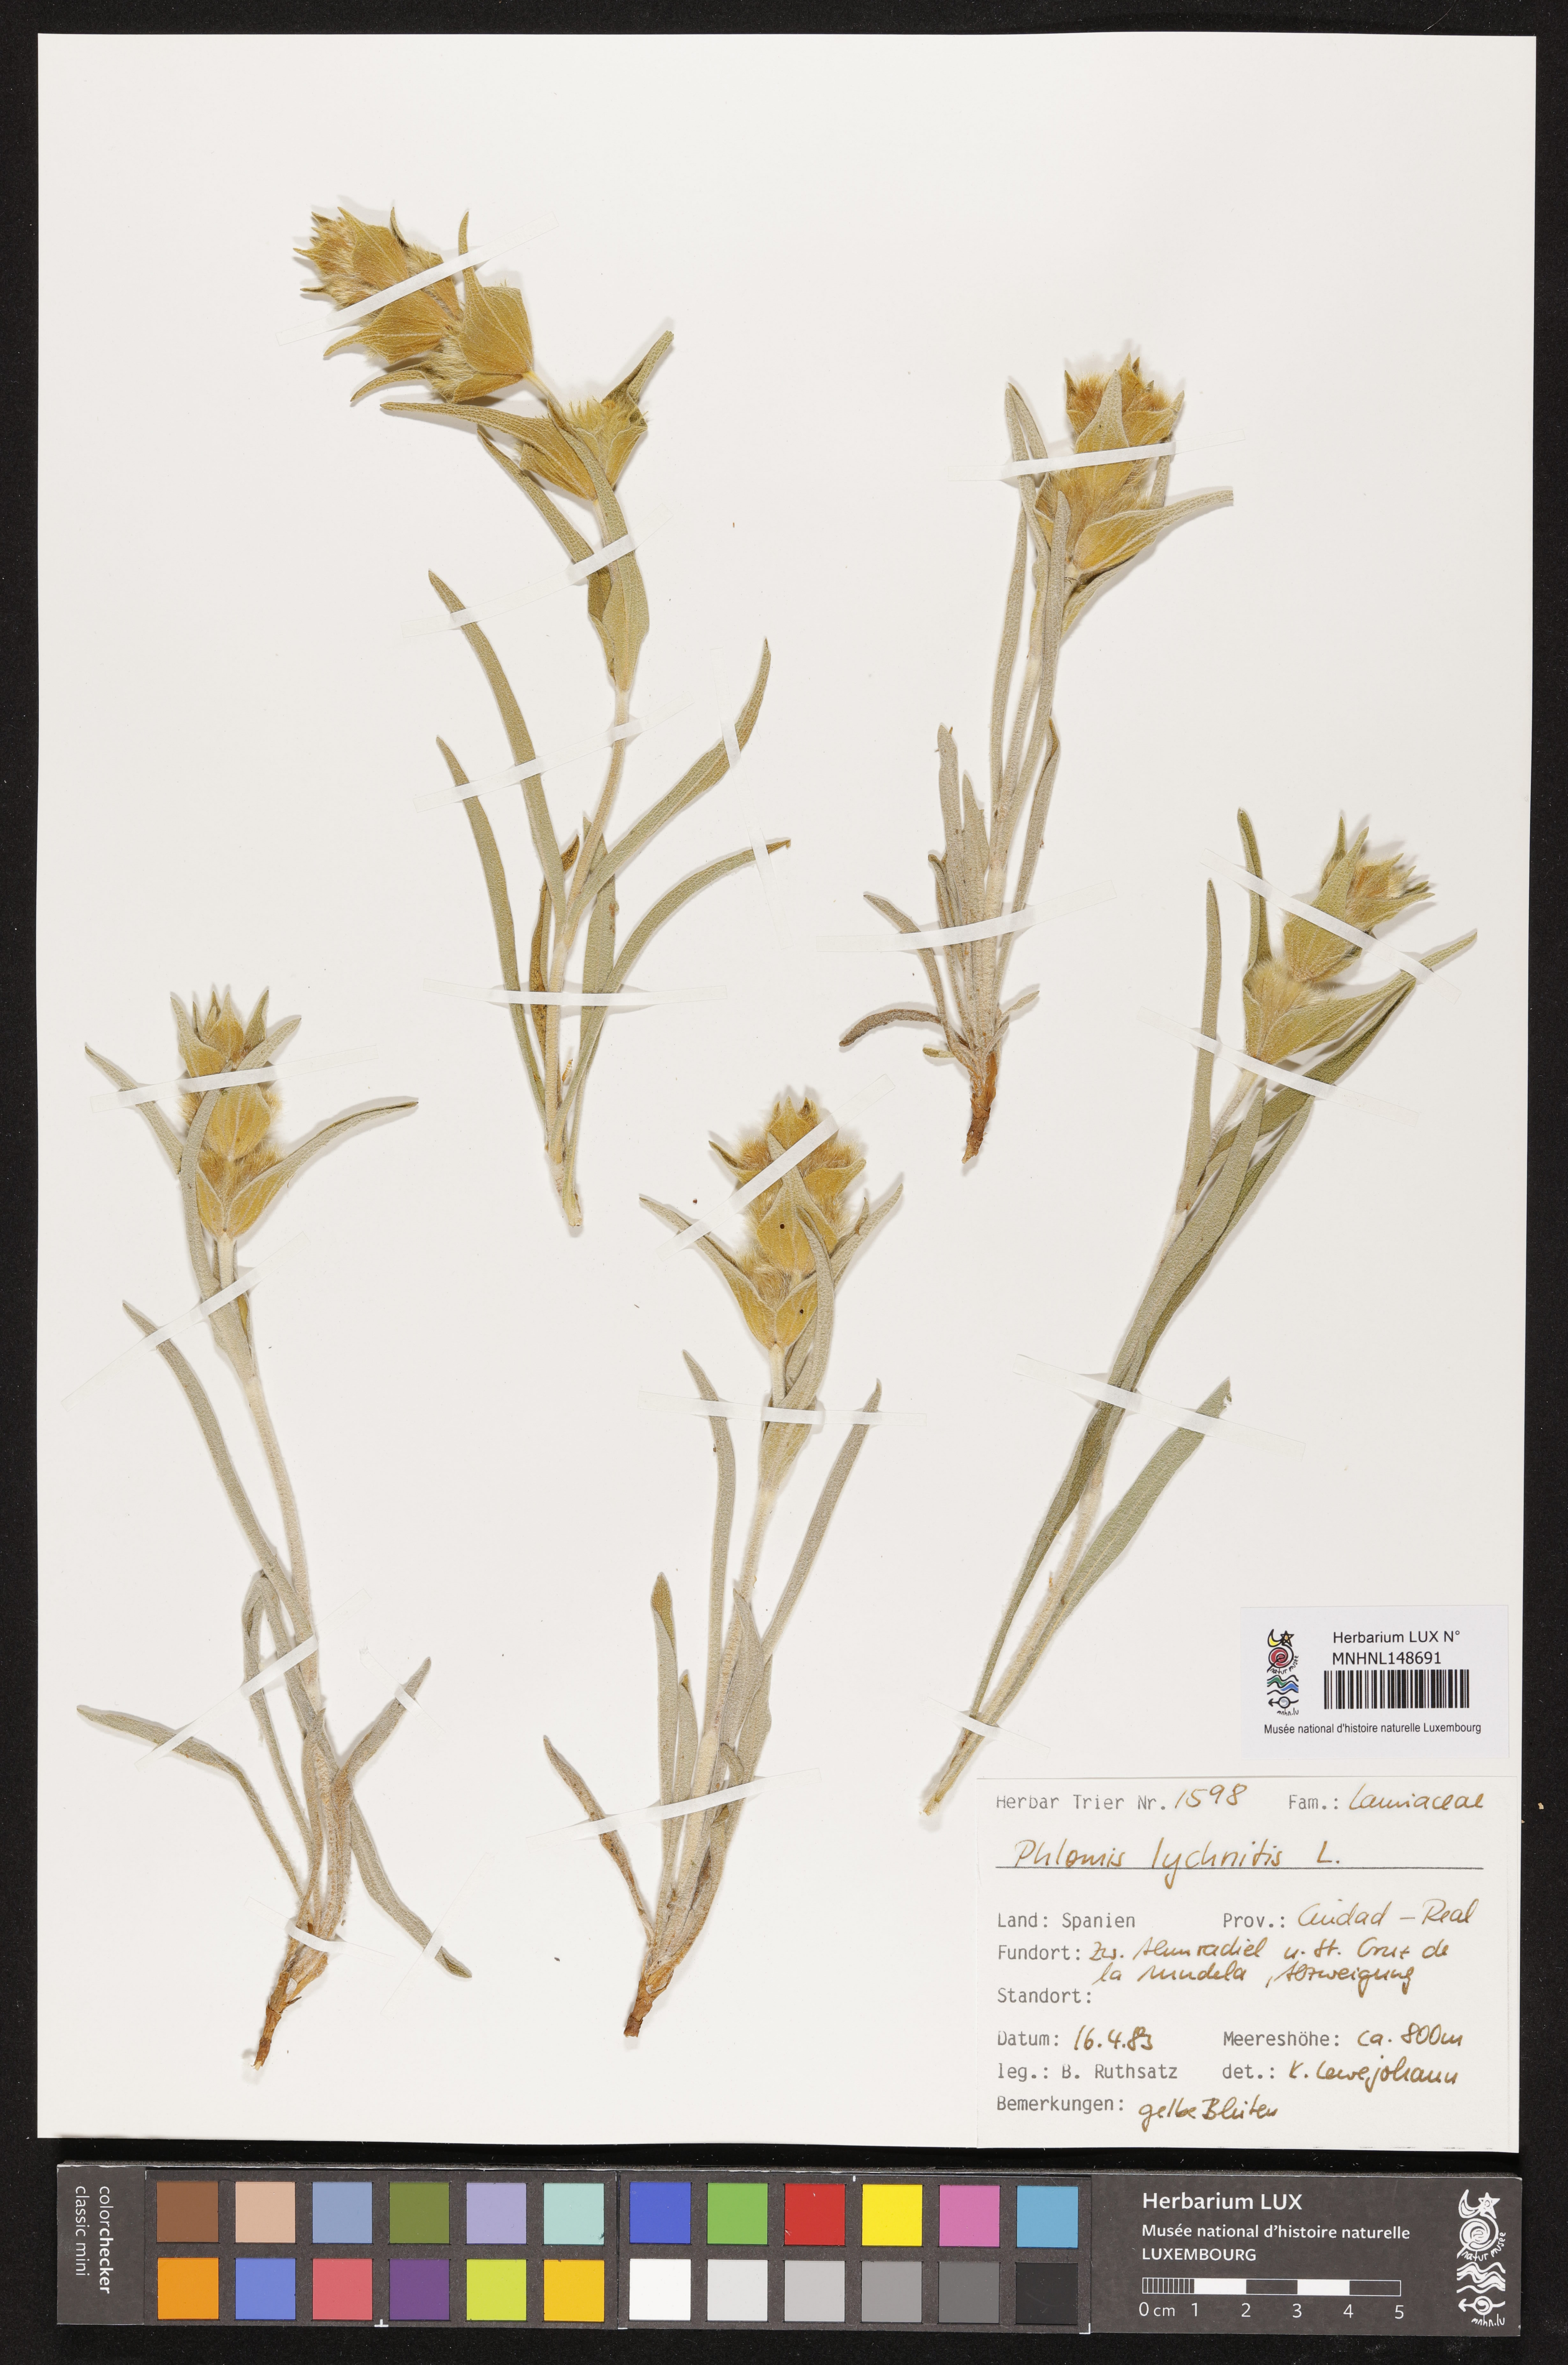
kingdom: Plantae
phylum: Tracheophyta
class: Magnoliopsida
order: Lamiales
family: Lamiaceae
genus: Phlomis
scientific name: Phlomis lychnitis
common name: Lampwickplant
